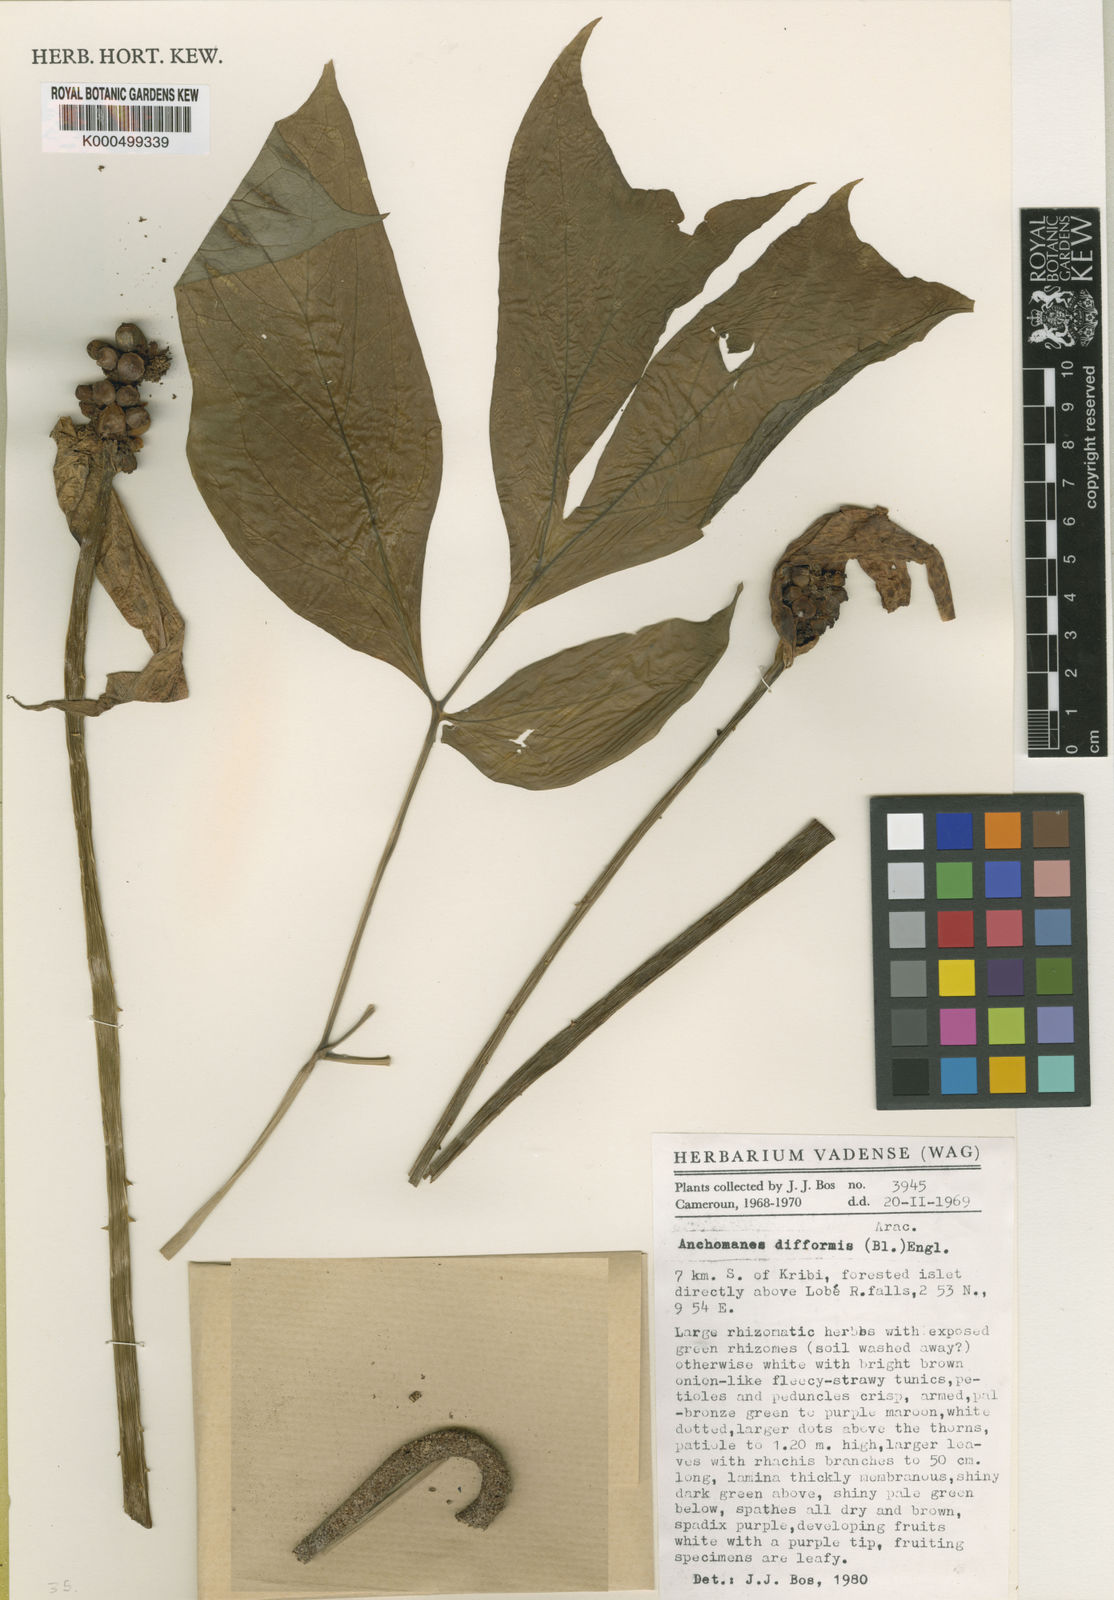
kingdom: Plantae
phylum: Tracheophyta
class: Liliopsida
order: Alismatales
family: Araceae
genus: Anchomanes
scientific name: Anchomanes difformis
